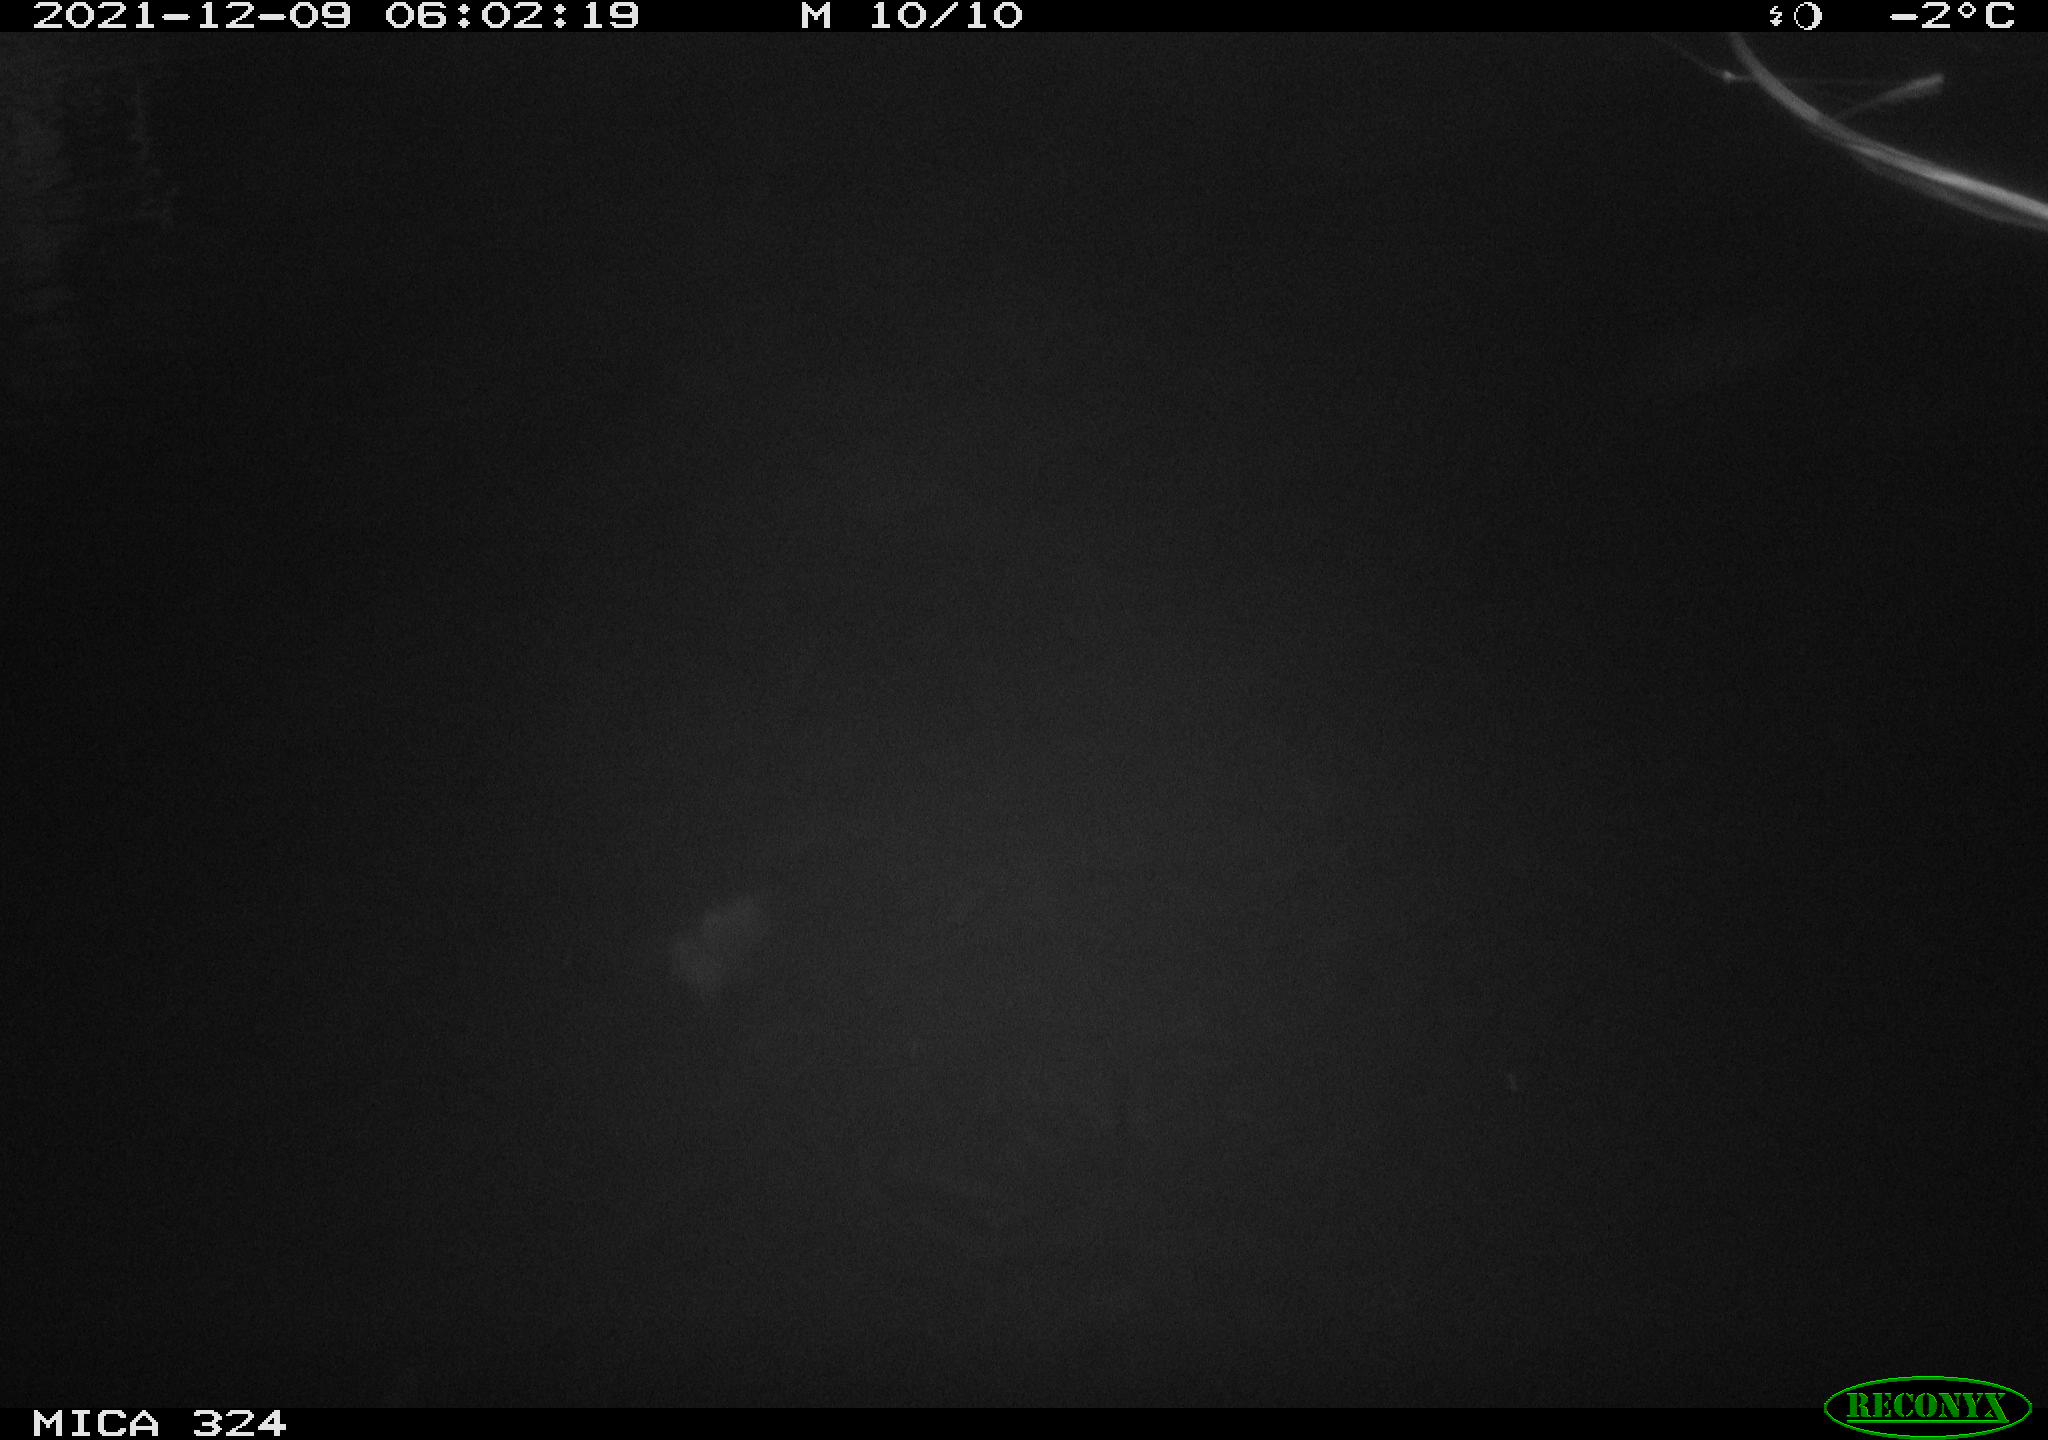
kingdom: Animalia
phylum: Chordata
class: Mammalia
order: Rodentia
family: Cricetidae
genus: Ondatra
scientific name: Ondatra zibethicus
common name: Muskrat
